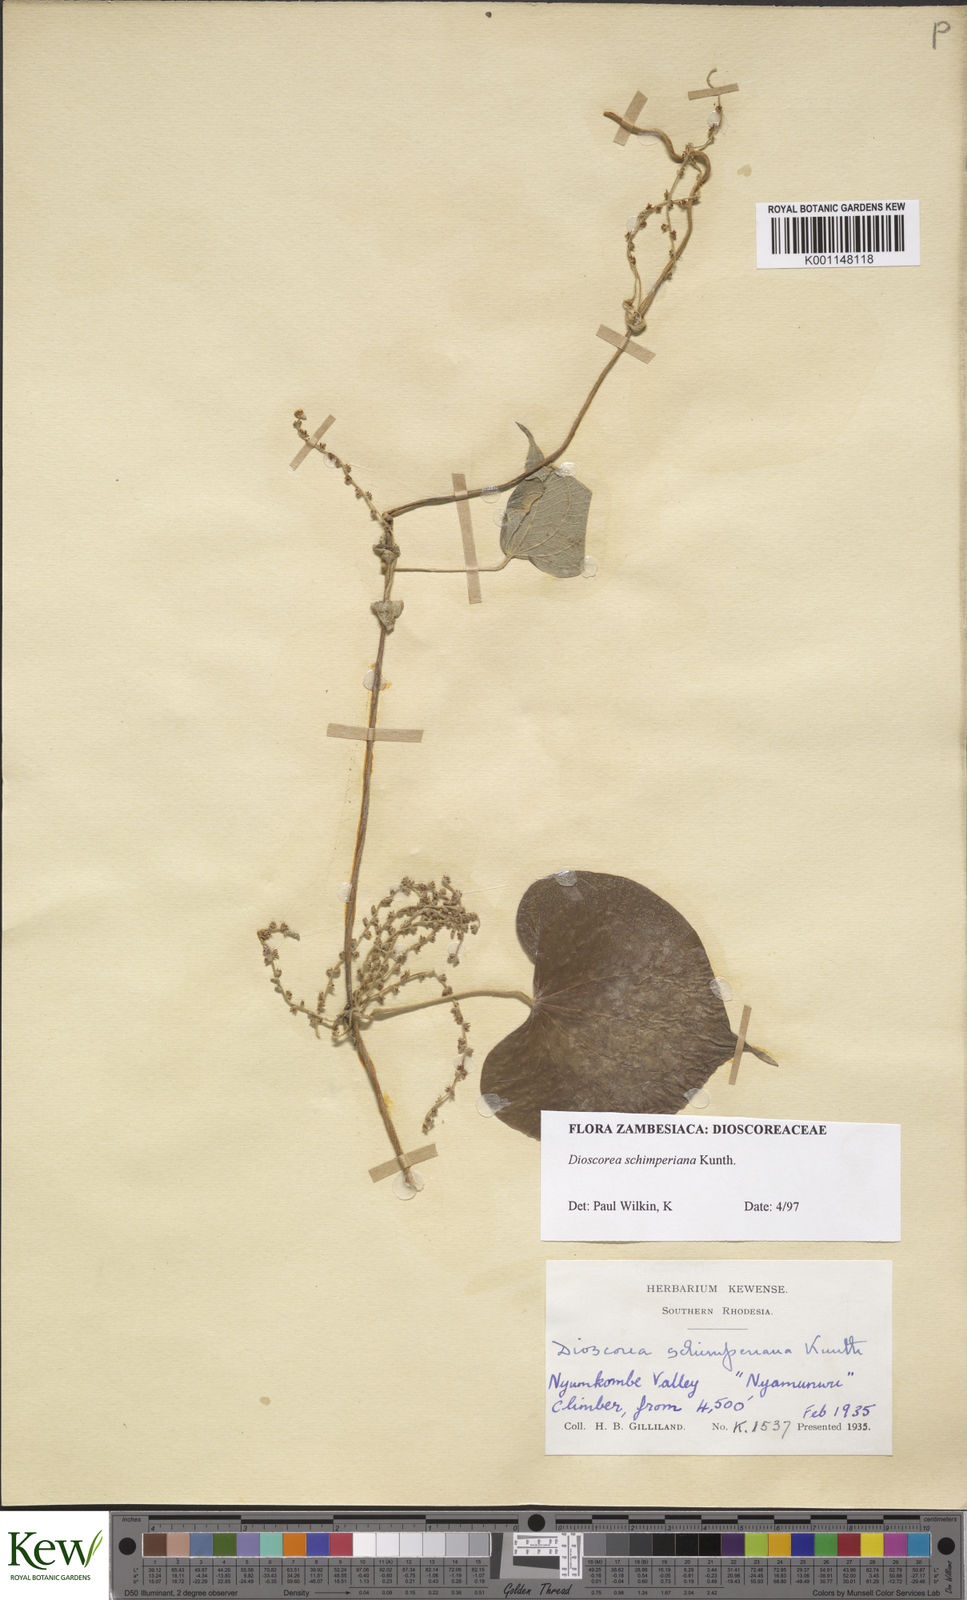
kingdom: Plantae
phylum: Tracheophyta
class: Liliopsida
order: Dioscoreales
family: Dioscoreaceae
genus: Dioscorea
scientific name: Dioscorea schimperiana
